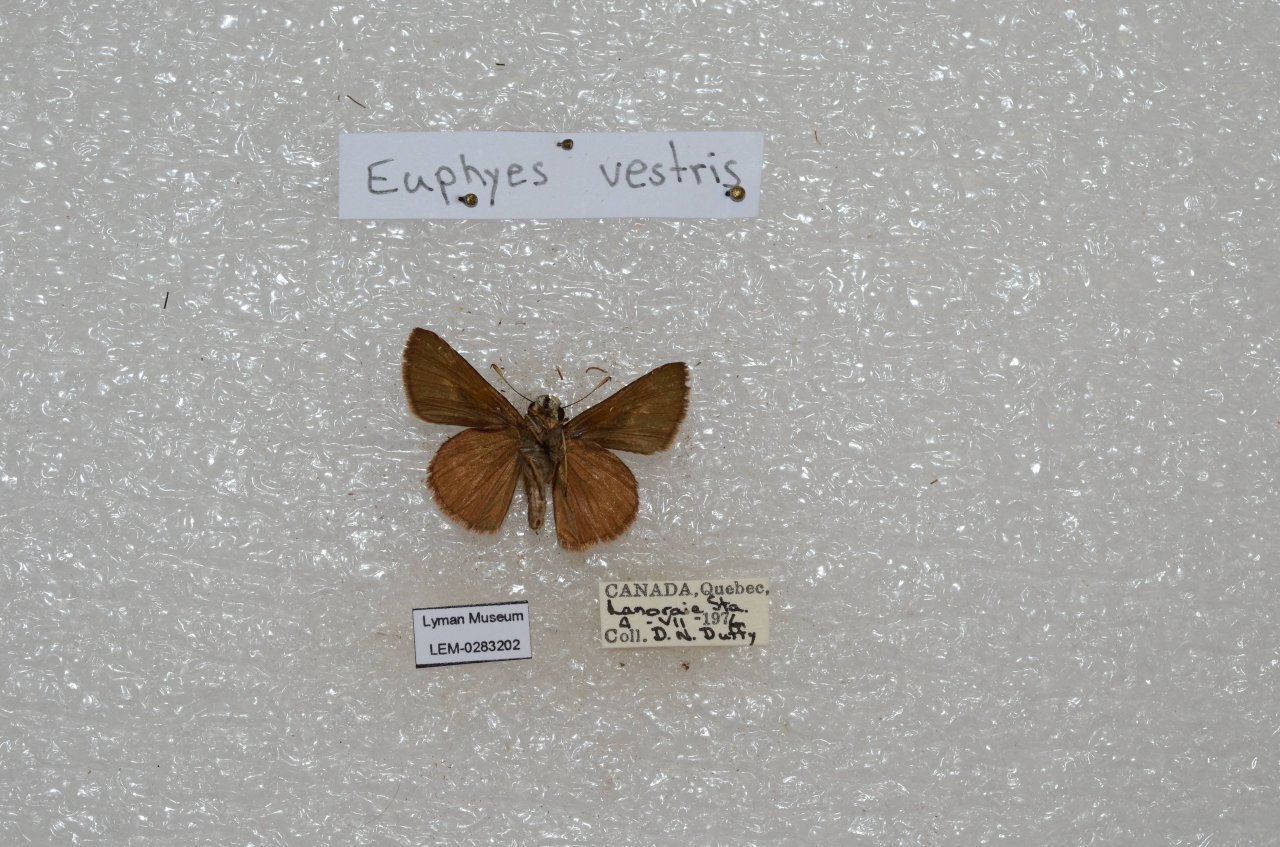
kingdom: Animalia
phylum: Arthropoda
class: Insecta
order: Lepidoptera
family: Hesperiidae
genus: Euphyes
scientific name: Euphyes vestris
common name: Dun Skipper
